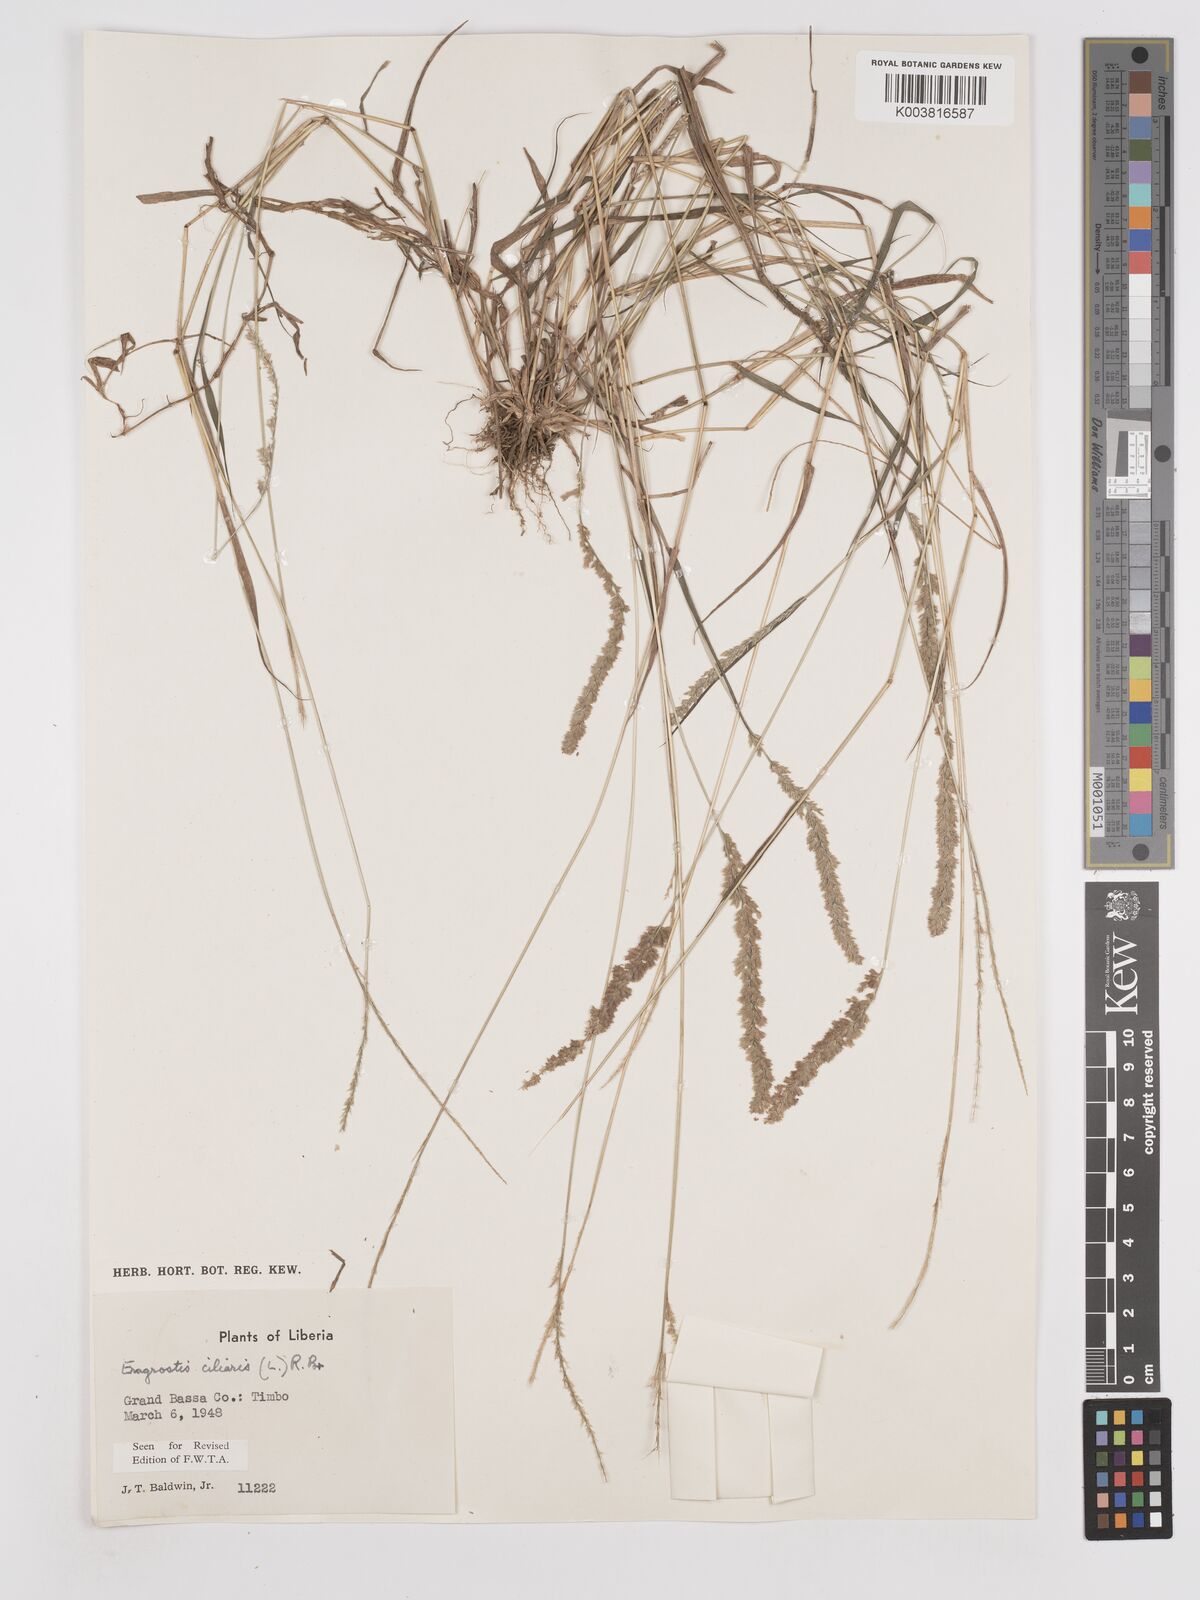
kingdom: Plantae
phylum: Tracheophyta
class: Liliopsida
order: Poales
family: Poaceae
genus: Eragrostis
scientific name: Eragrostis ciliaris
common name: Gophertail lovegrass
